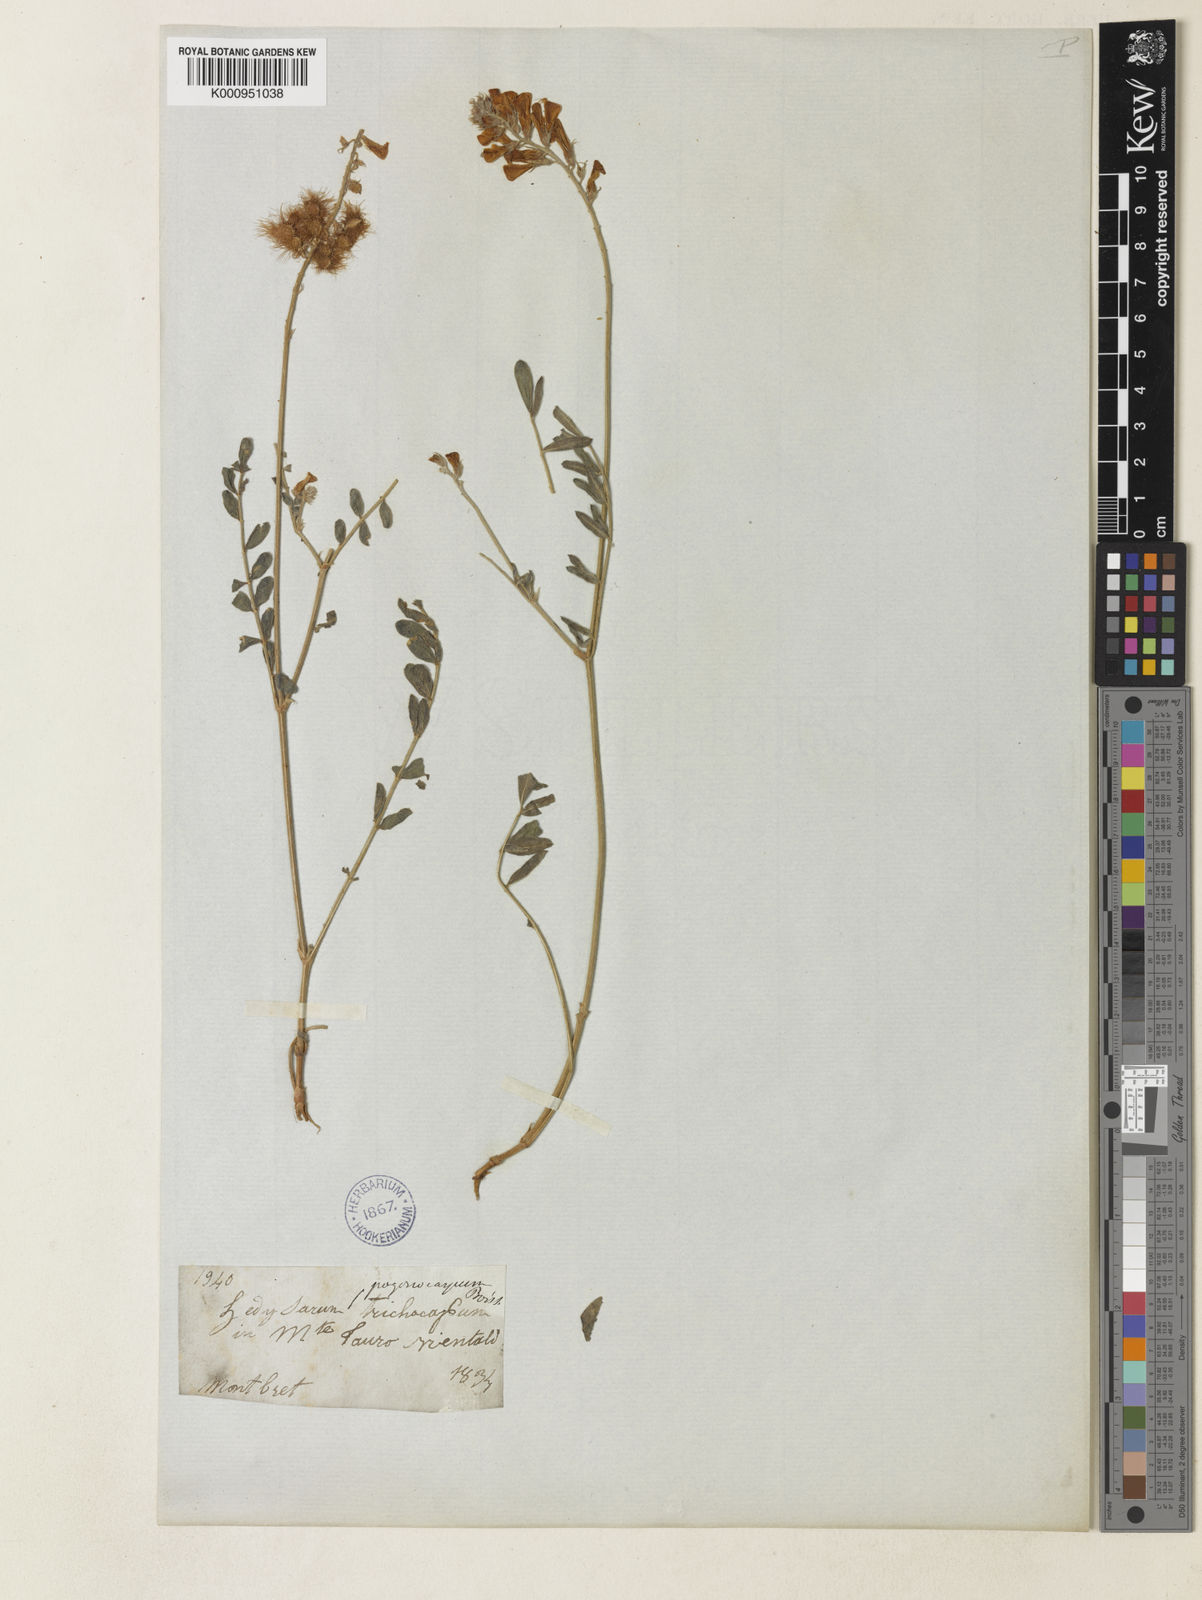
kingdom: Plantae
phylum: Tracheophyta
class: Magnoliopsida
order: Fabales
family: Fabaceae
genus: Hedysarum
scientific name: Hedysarum pogonocarpum
